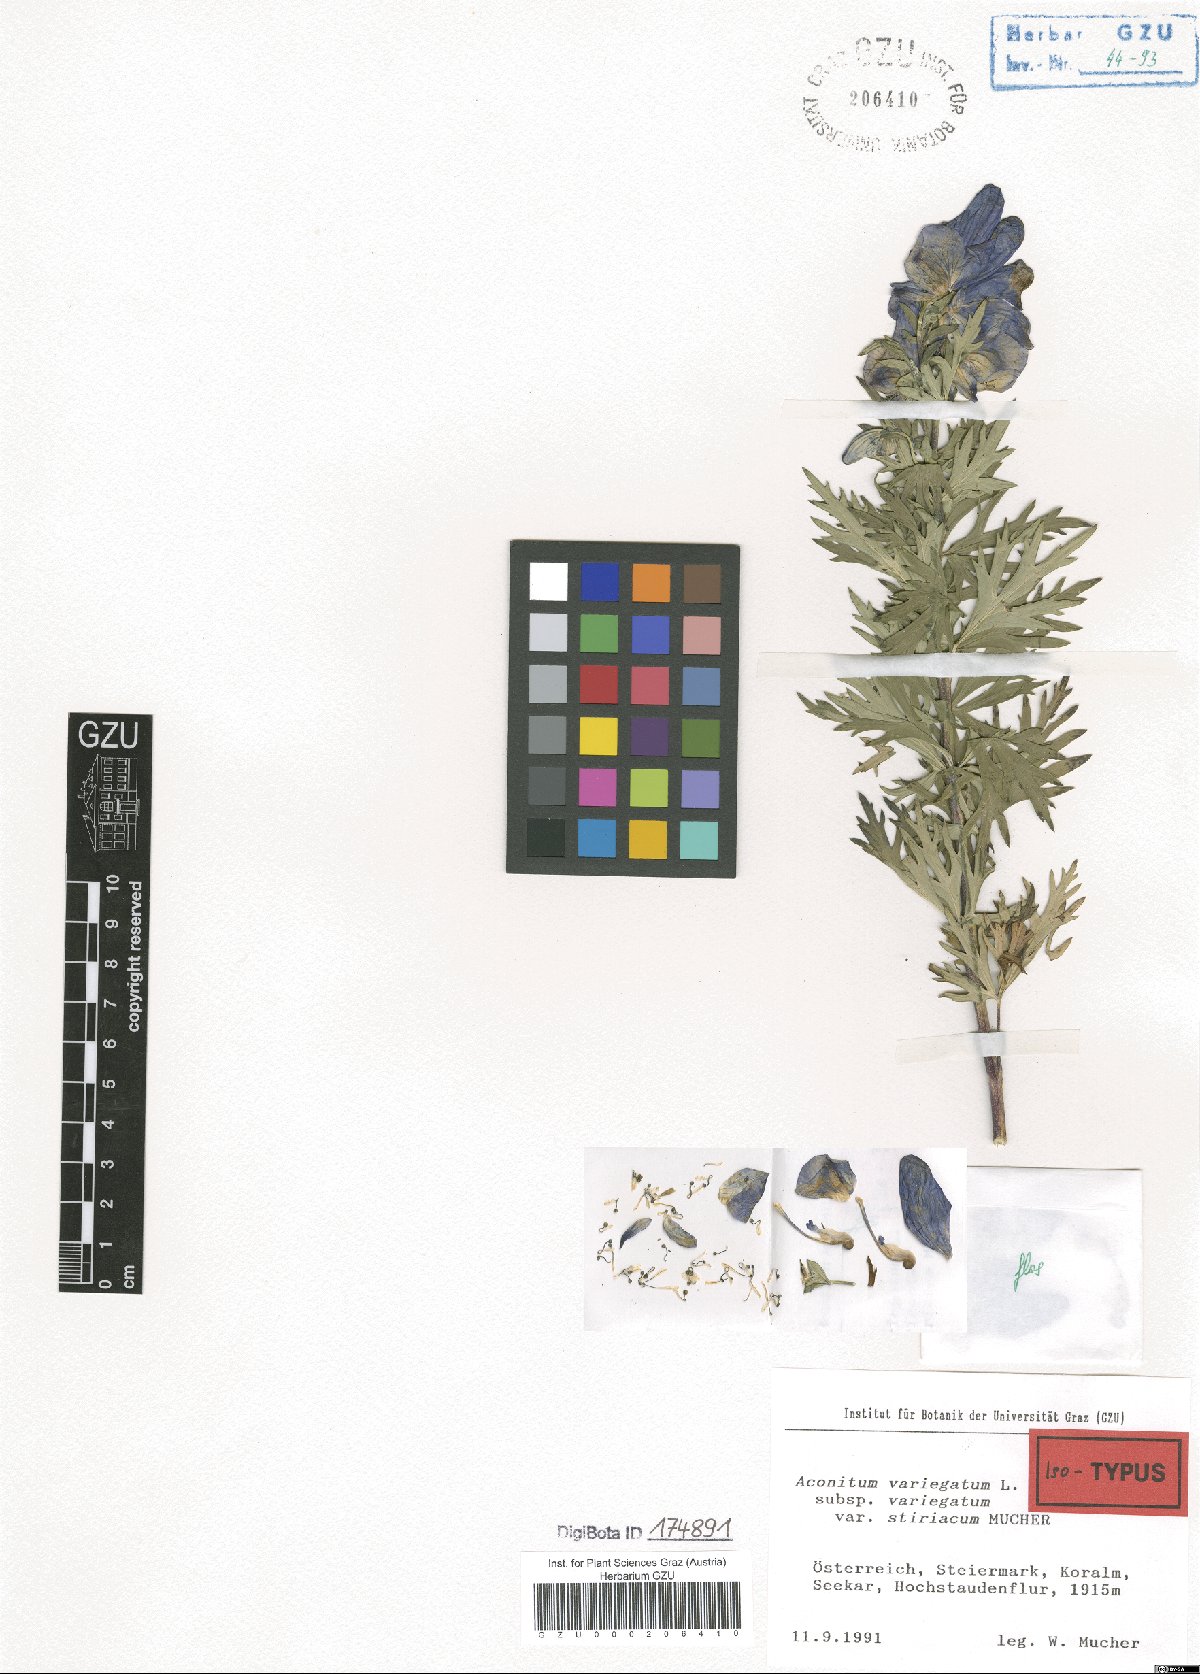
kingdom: Plantae
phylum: Tracheophyta
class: Magnoliopsida
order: Ranunculales
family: Ranunculaceae
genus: Aconitum
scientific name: Aconitum variegatum
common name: Manchurian monkshood
